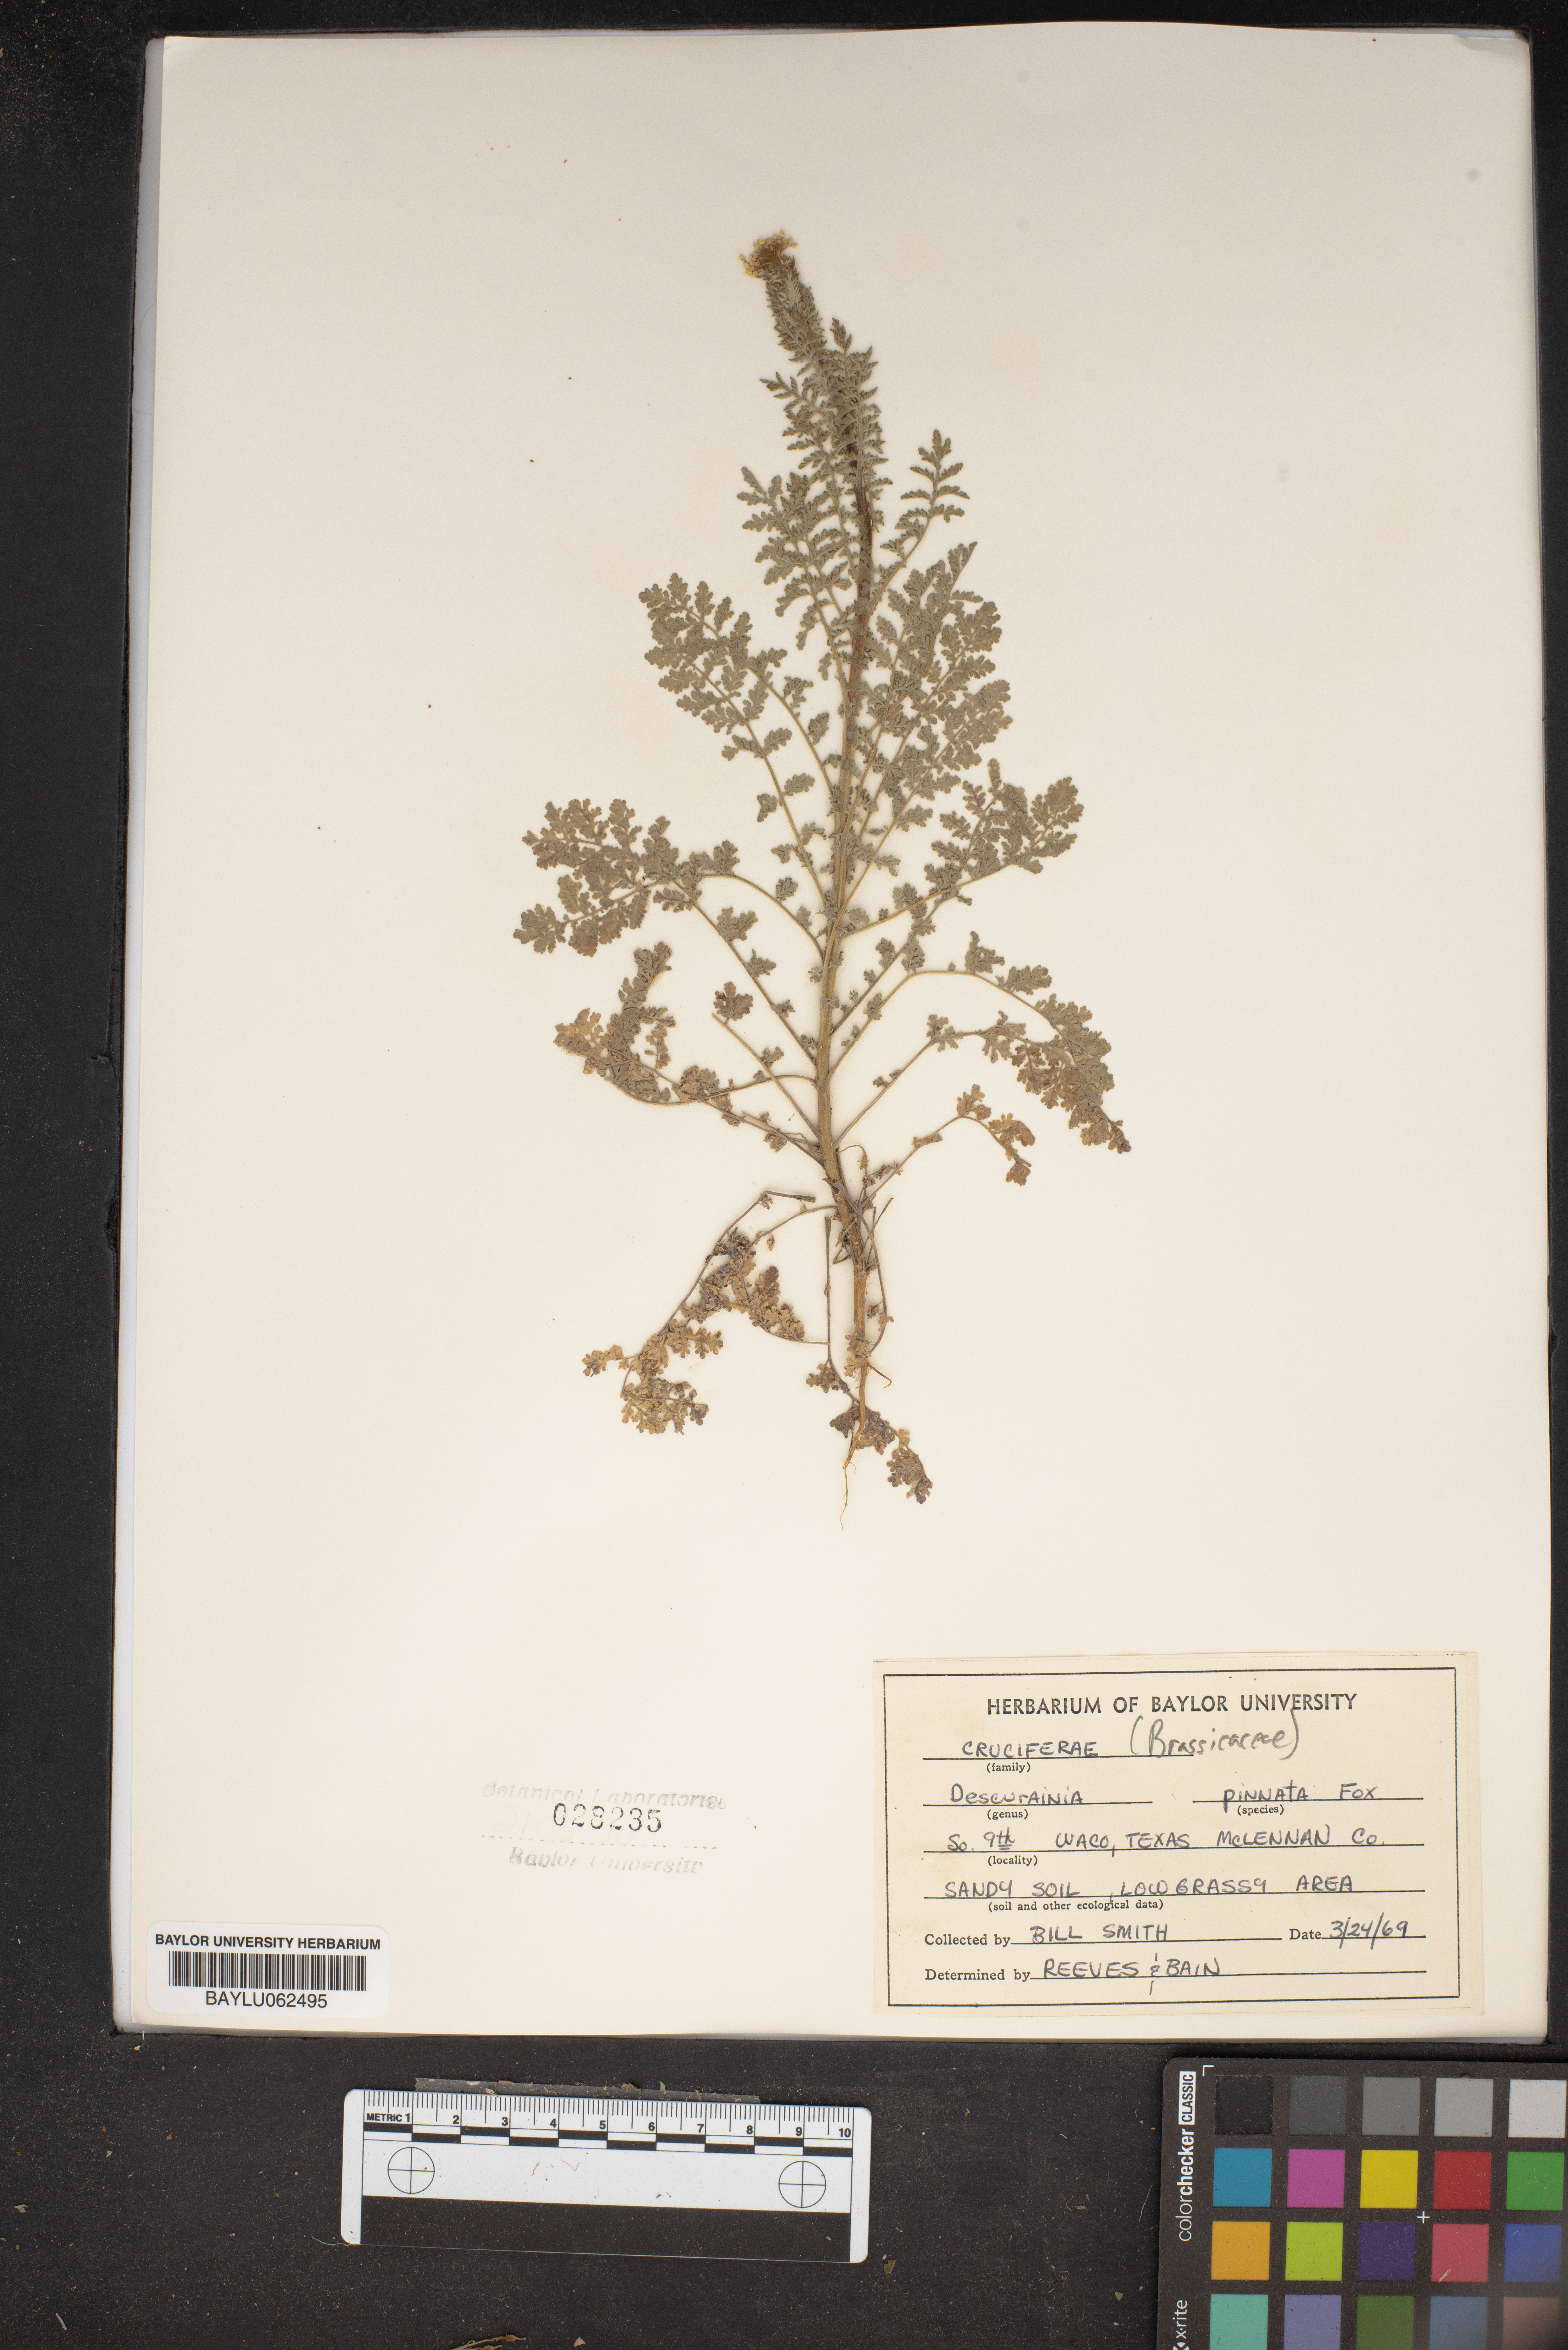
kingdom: Plantae
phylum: Tracheophyta
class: Magnoliopsida
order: Brassicales
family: Brassicaceae
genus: Descurainia
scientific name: Descurainia pinnata
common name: Western tansy mustard
